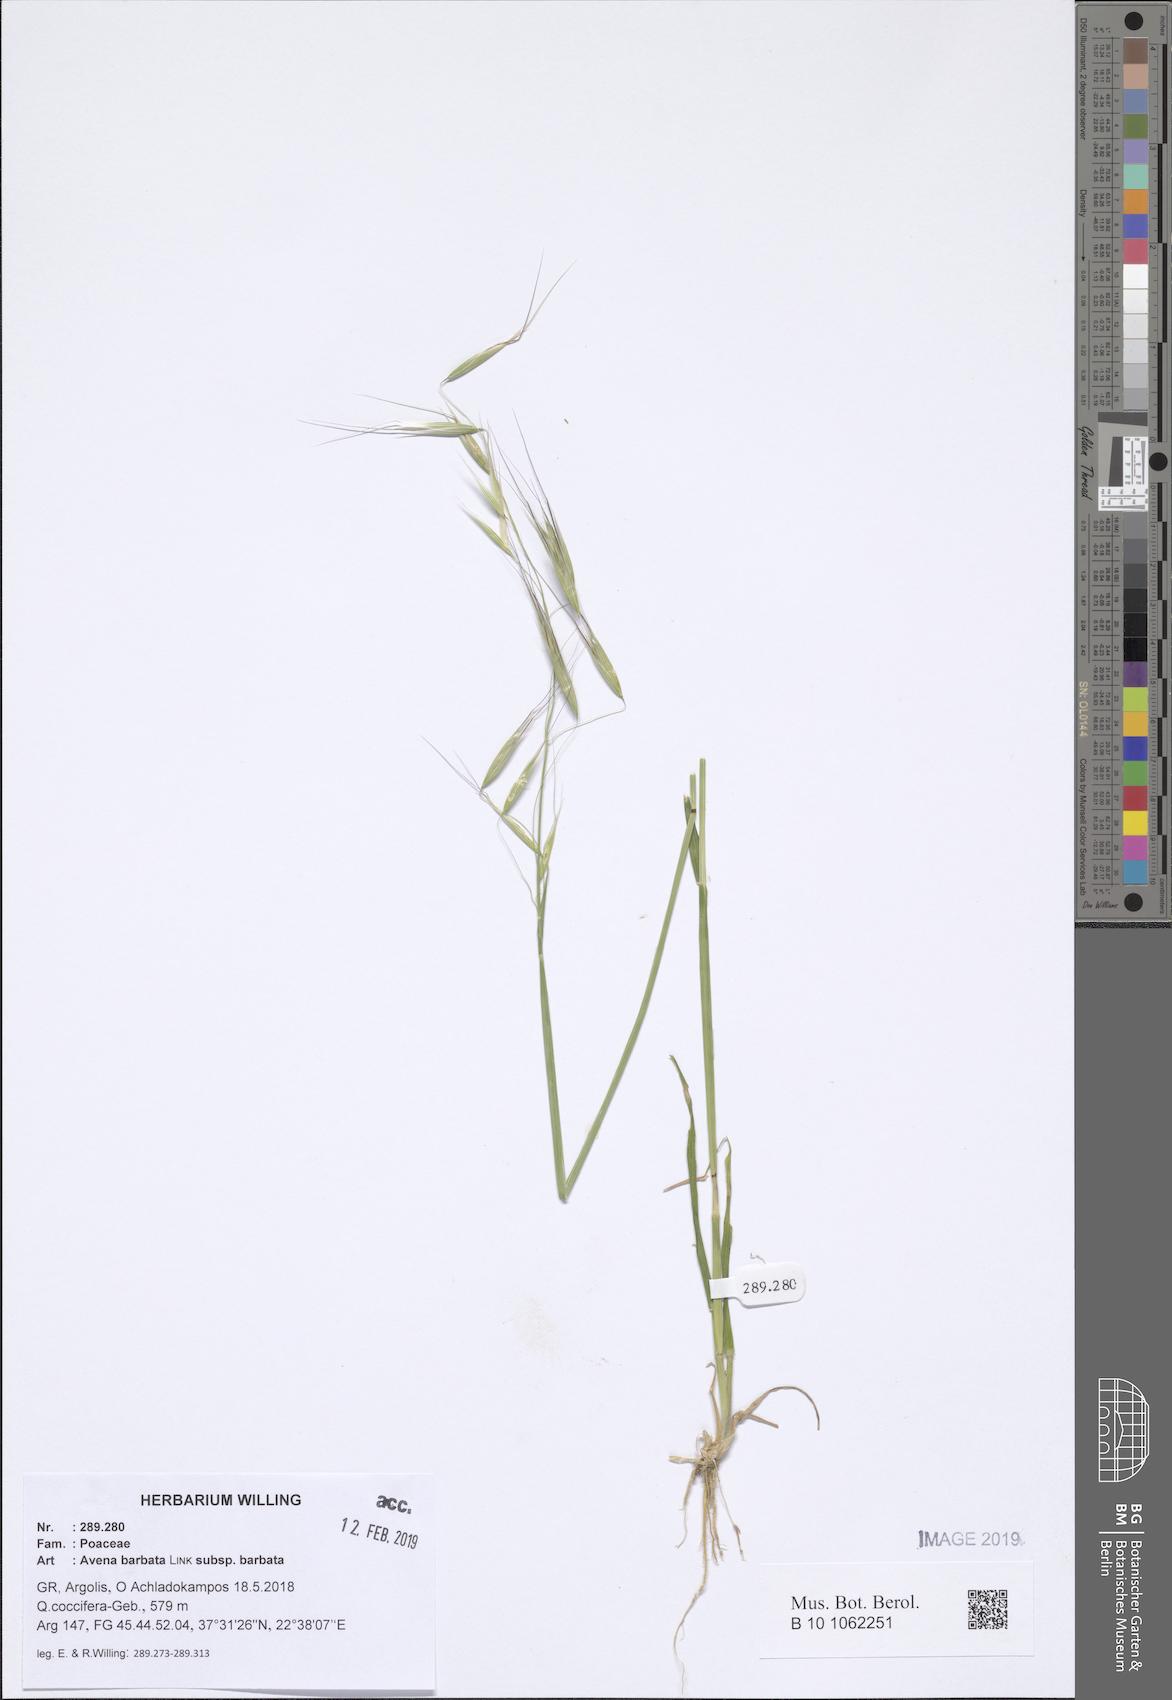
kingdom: Plantae
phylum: Tracheophyta
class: Liliopsida
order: Poales
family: Poaceae
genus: Avena
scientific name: Avena barbata
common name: Slender oat
